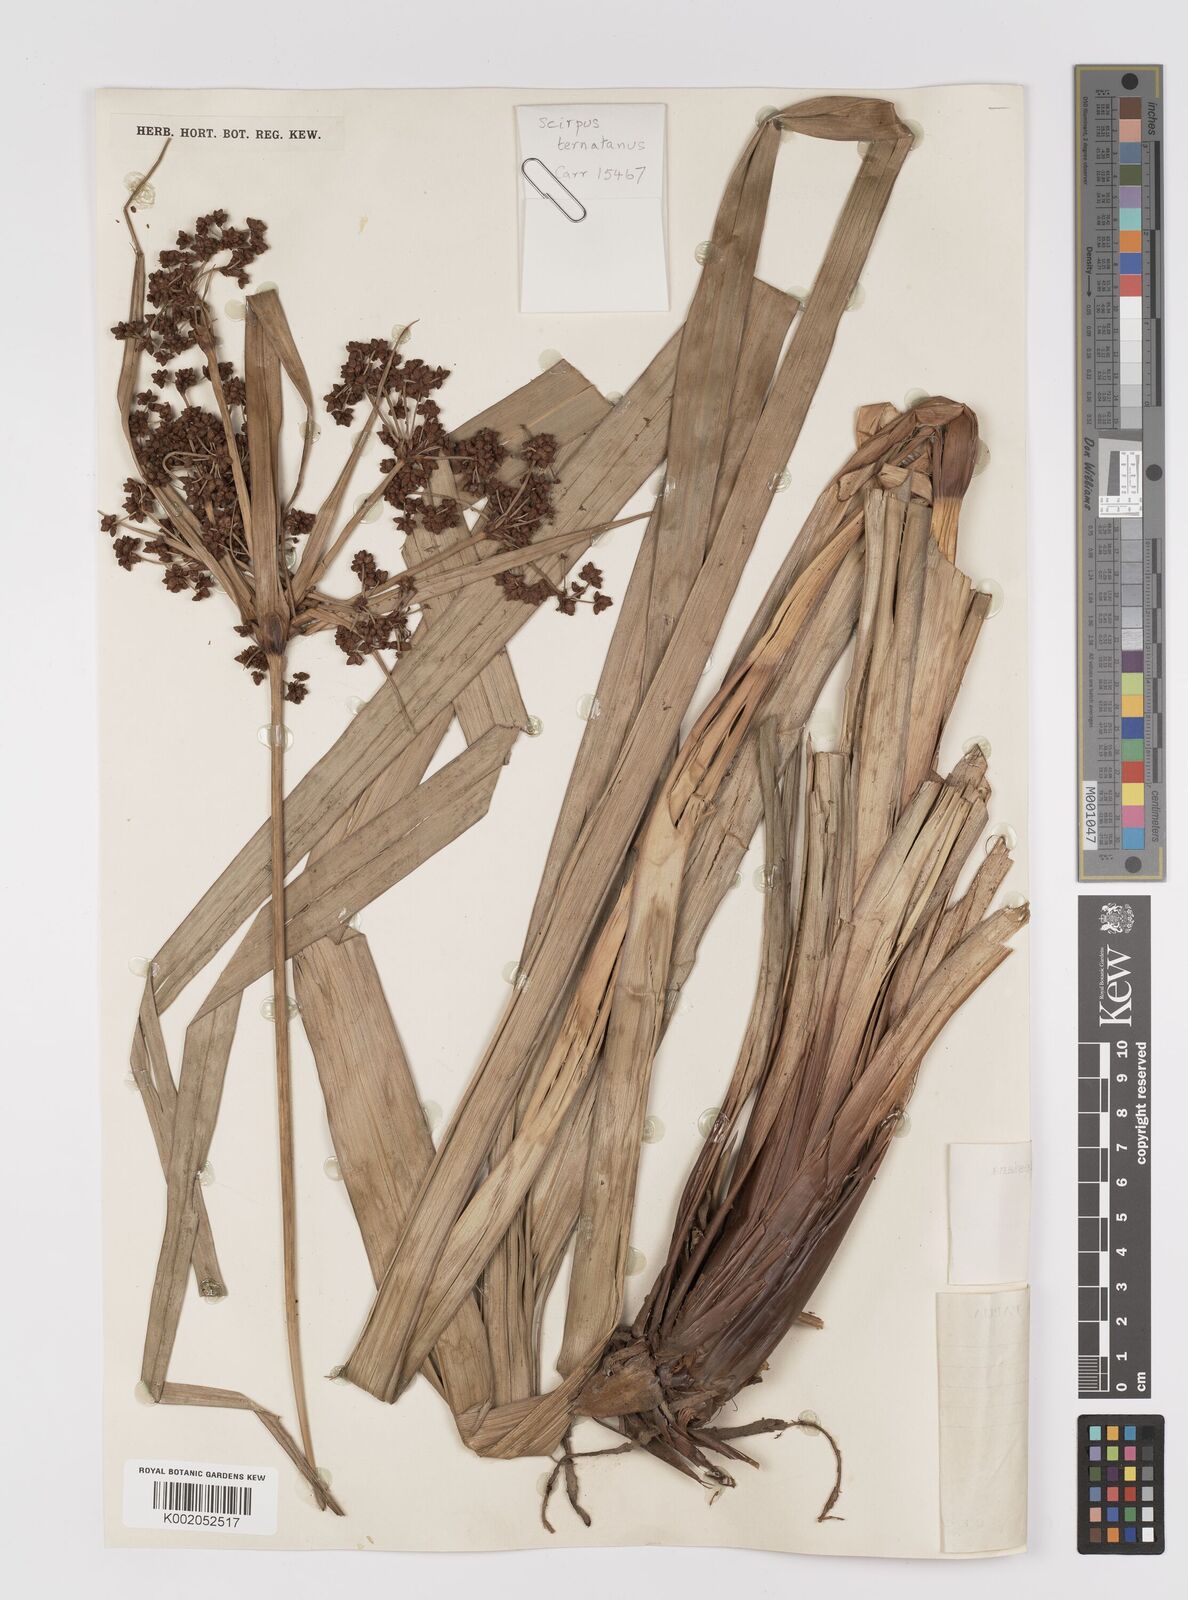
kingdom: Plantae
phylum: Tracheophyta
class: Liliopsida
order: Poales
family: Cyperaceae
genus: Scirpus
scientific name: Scirpus ternatanus
